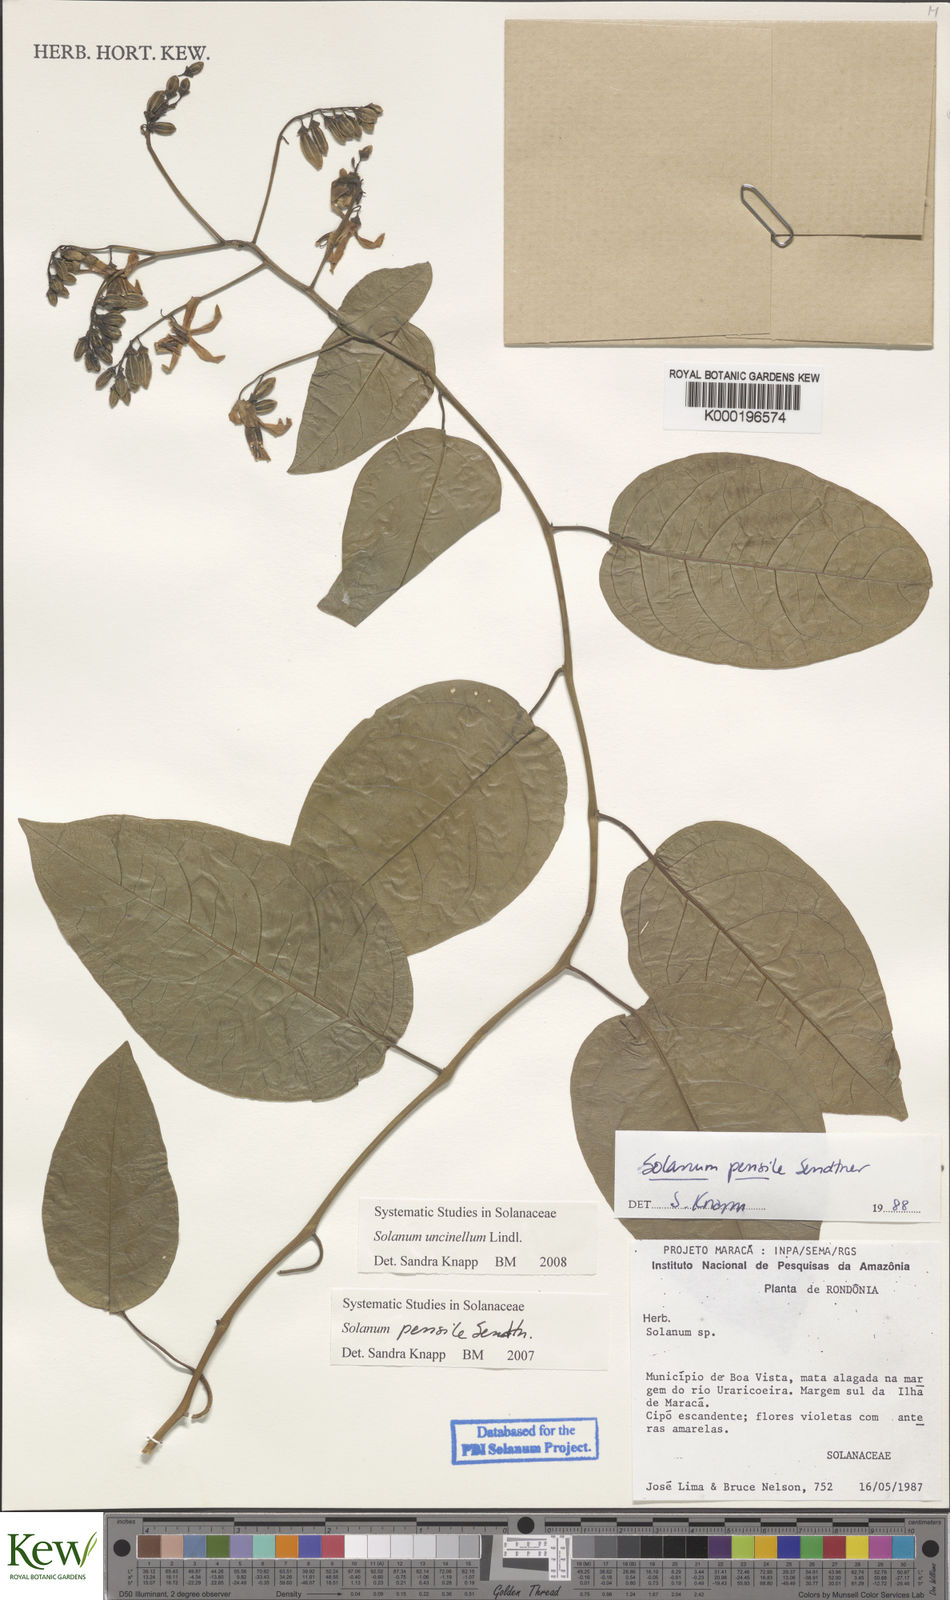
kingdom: Plantae
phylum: Tracheophyta
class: Magnoliopsida
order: Solanales
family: Solanaceae
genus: Solanum
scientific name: Solanum uncinellum
